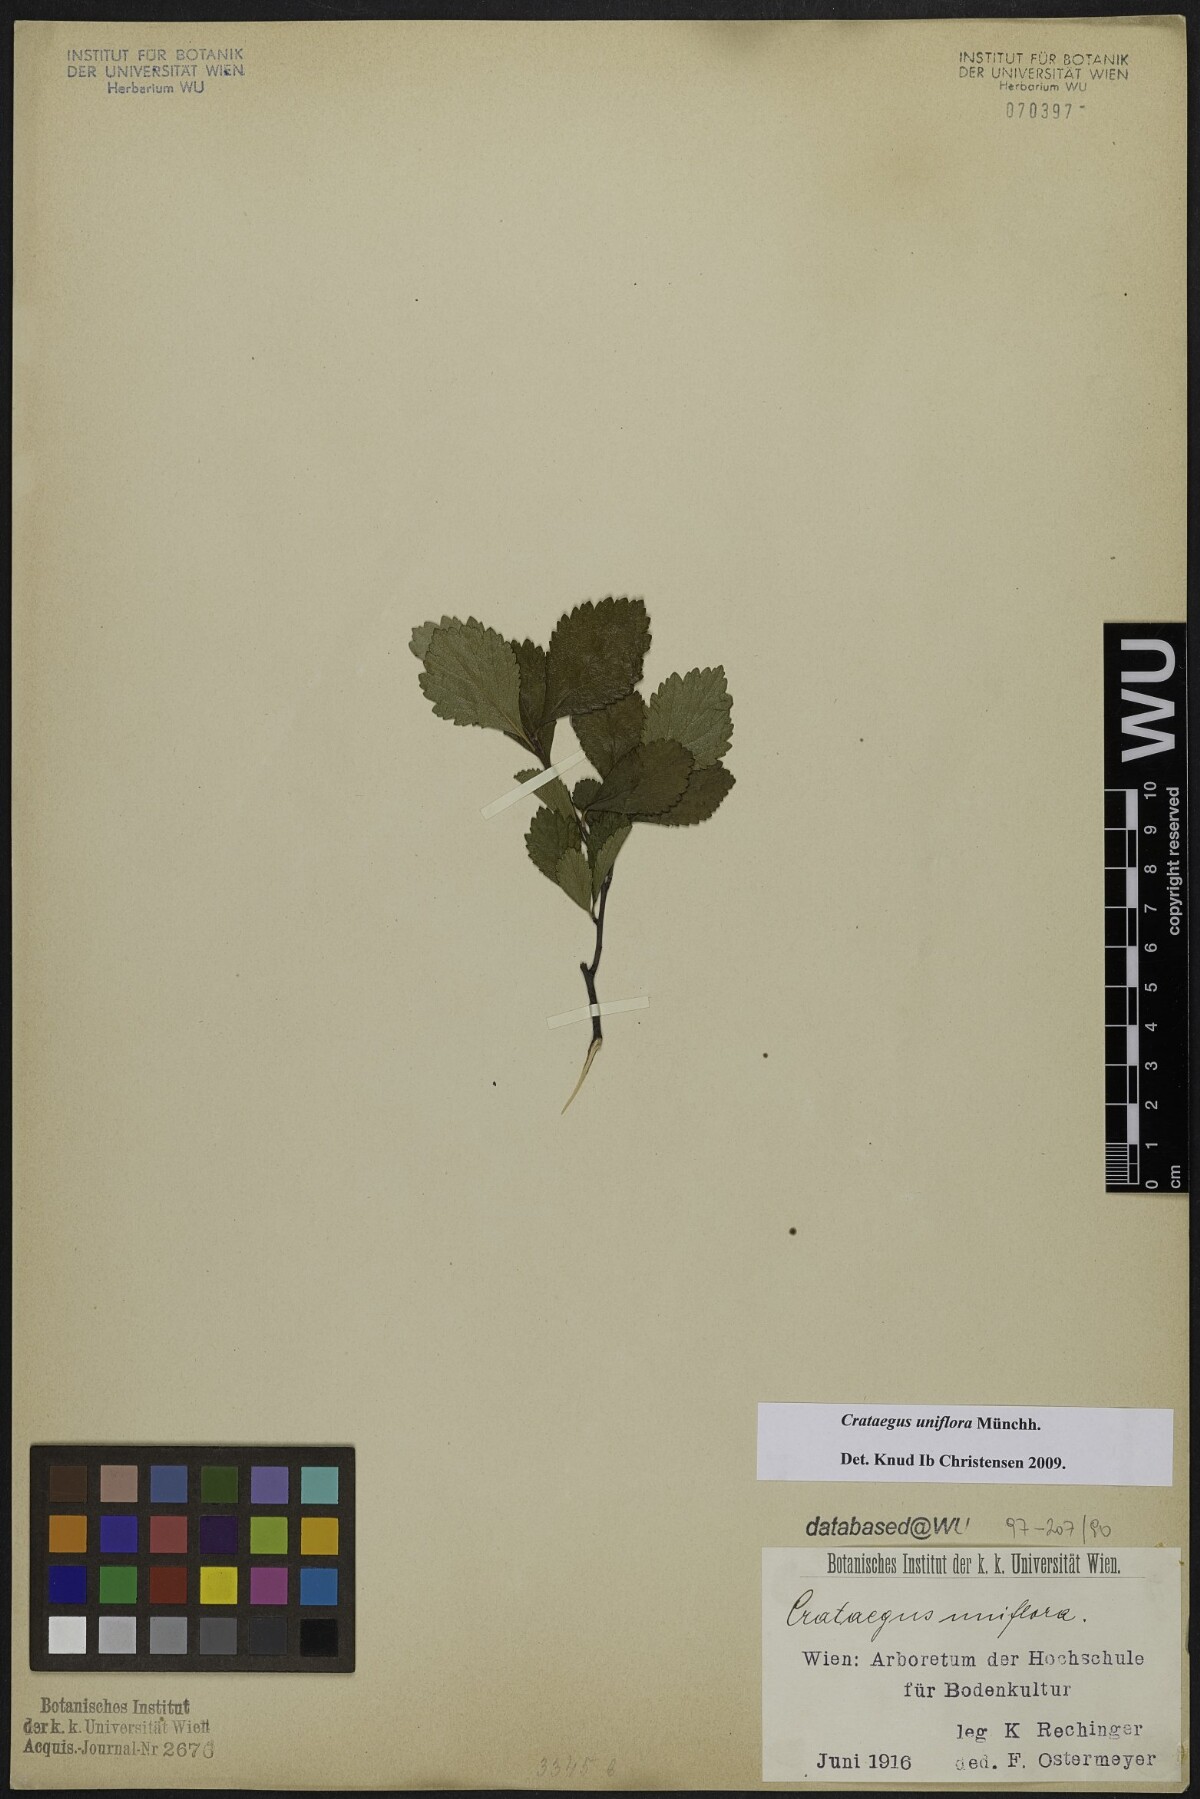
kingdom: Plantae
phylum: Tracheophyta
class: Magnoliopsida
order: Rosales
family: Rosaceae
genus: Crataegus
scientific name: Crataegus uniflora
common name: One-flower hawthorn
